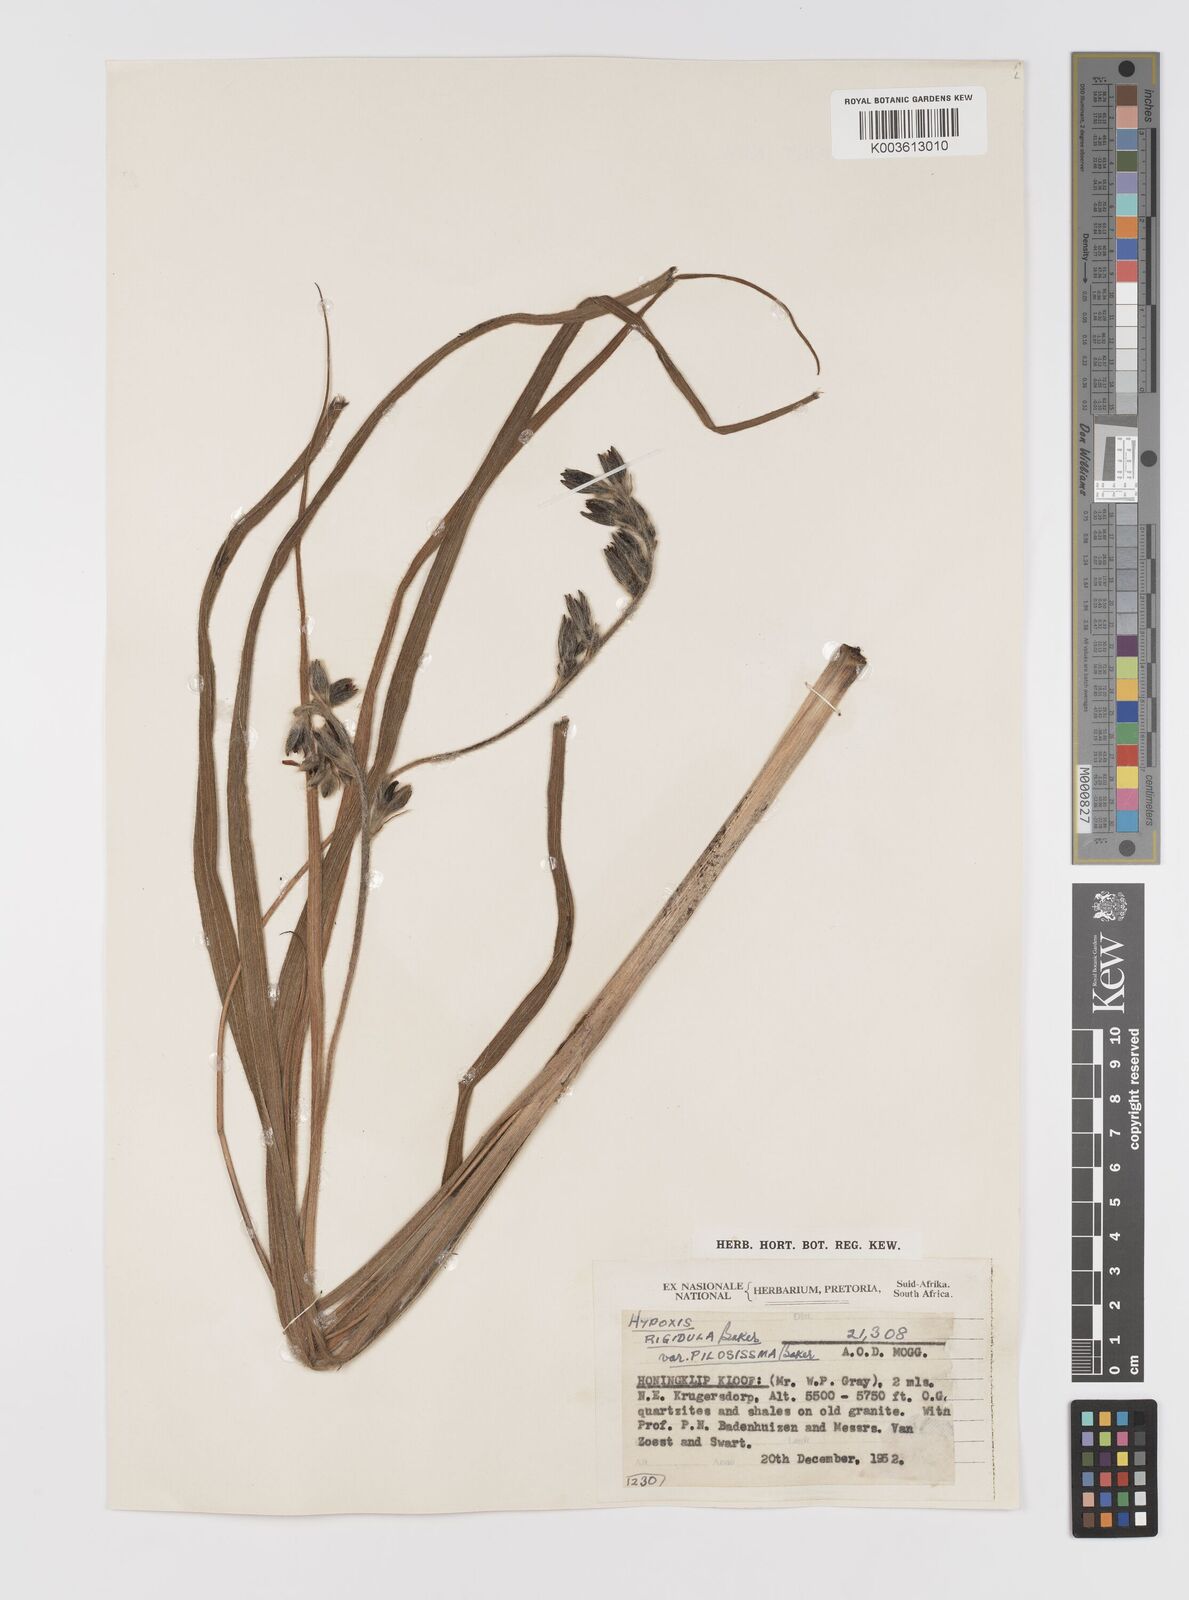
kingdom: Plantae
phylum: Tracheophyta
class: Liliopsida
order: Asparagales
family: Hypoxidaceae
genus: Hypoxis
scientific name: Hypoxis rigidula
